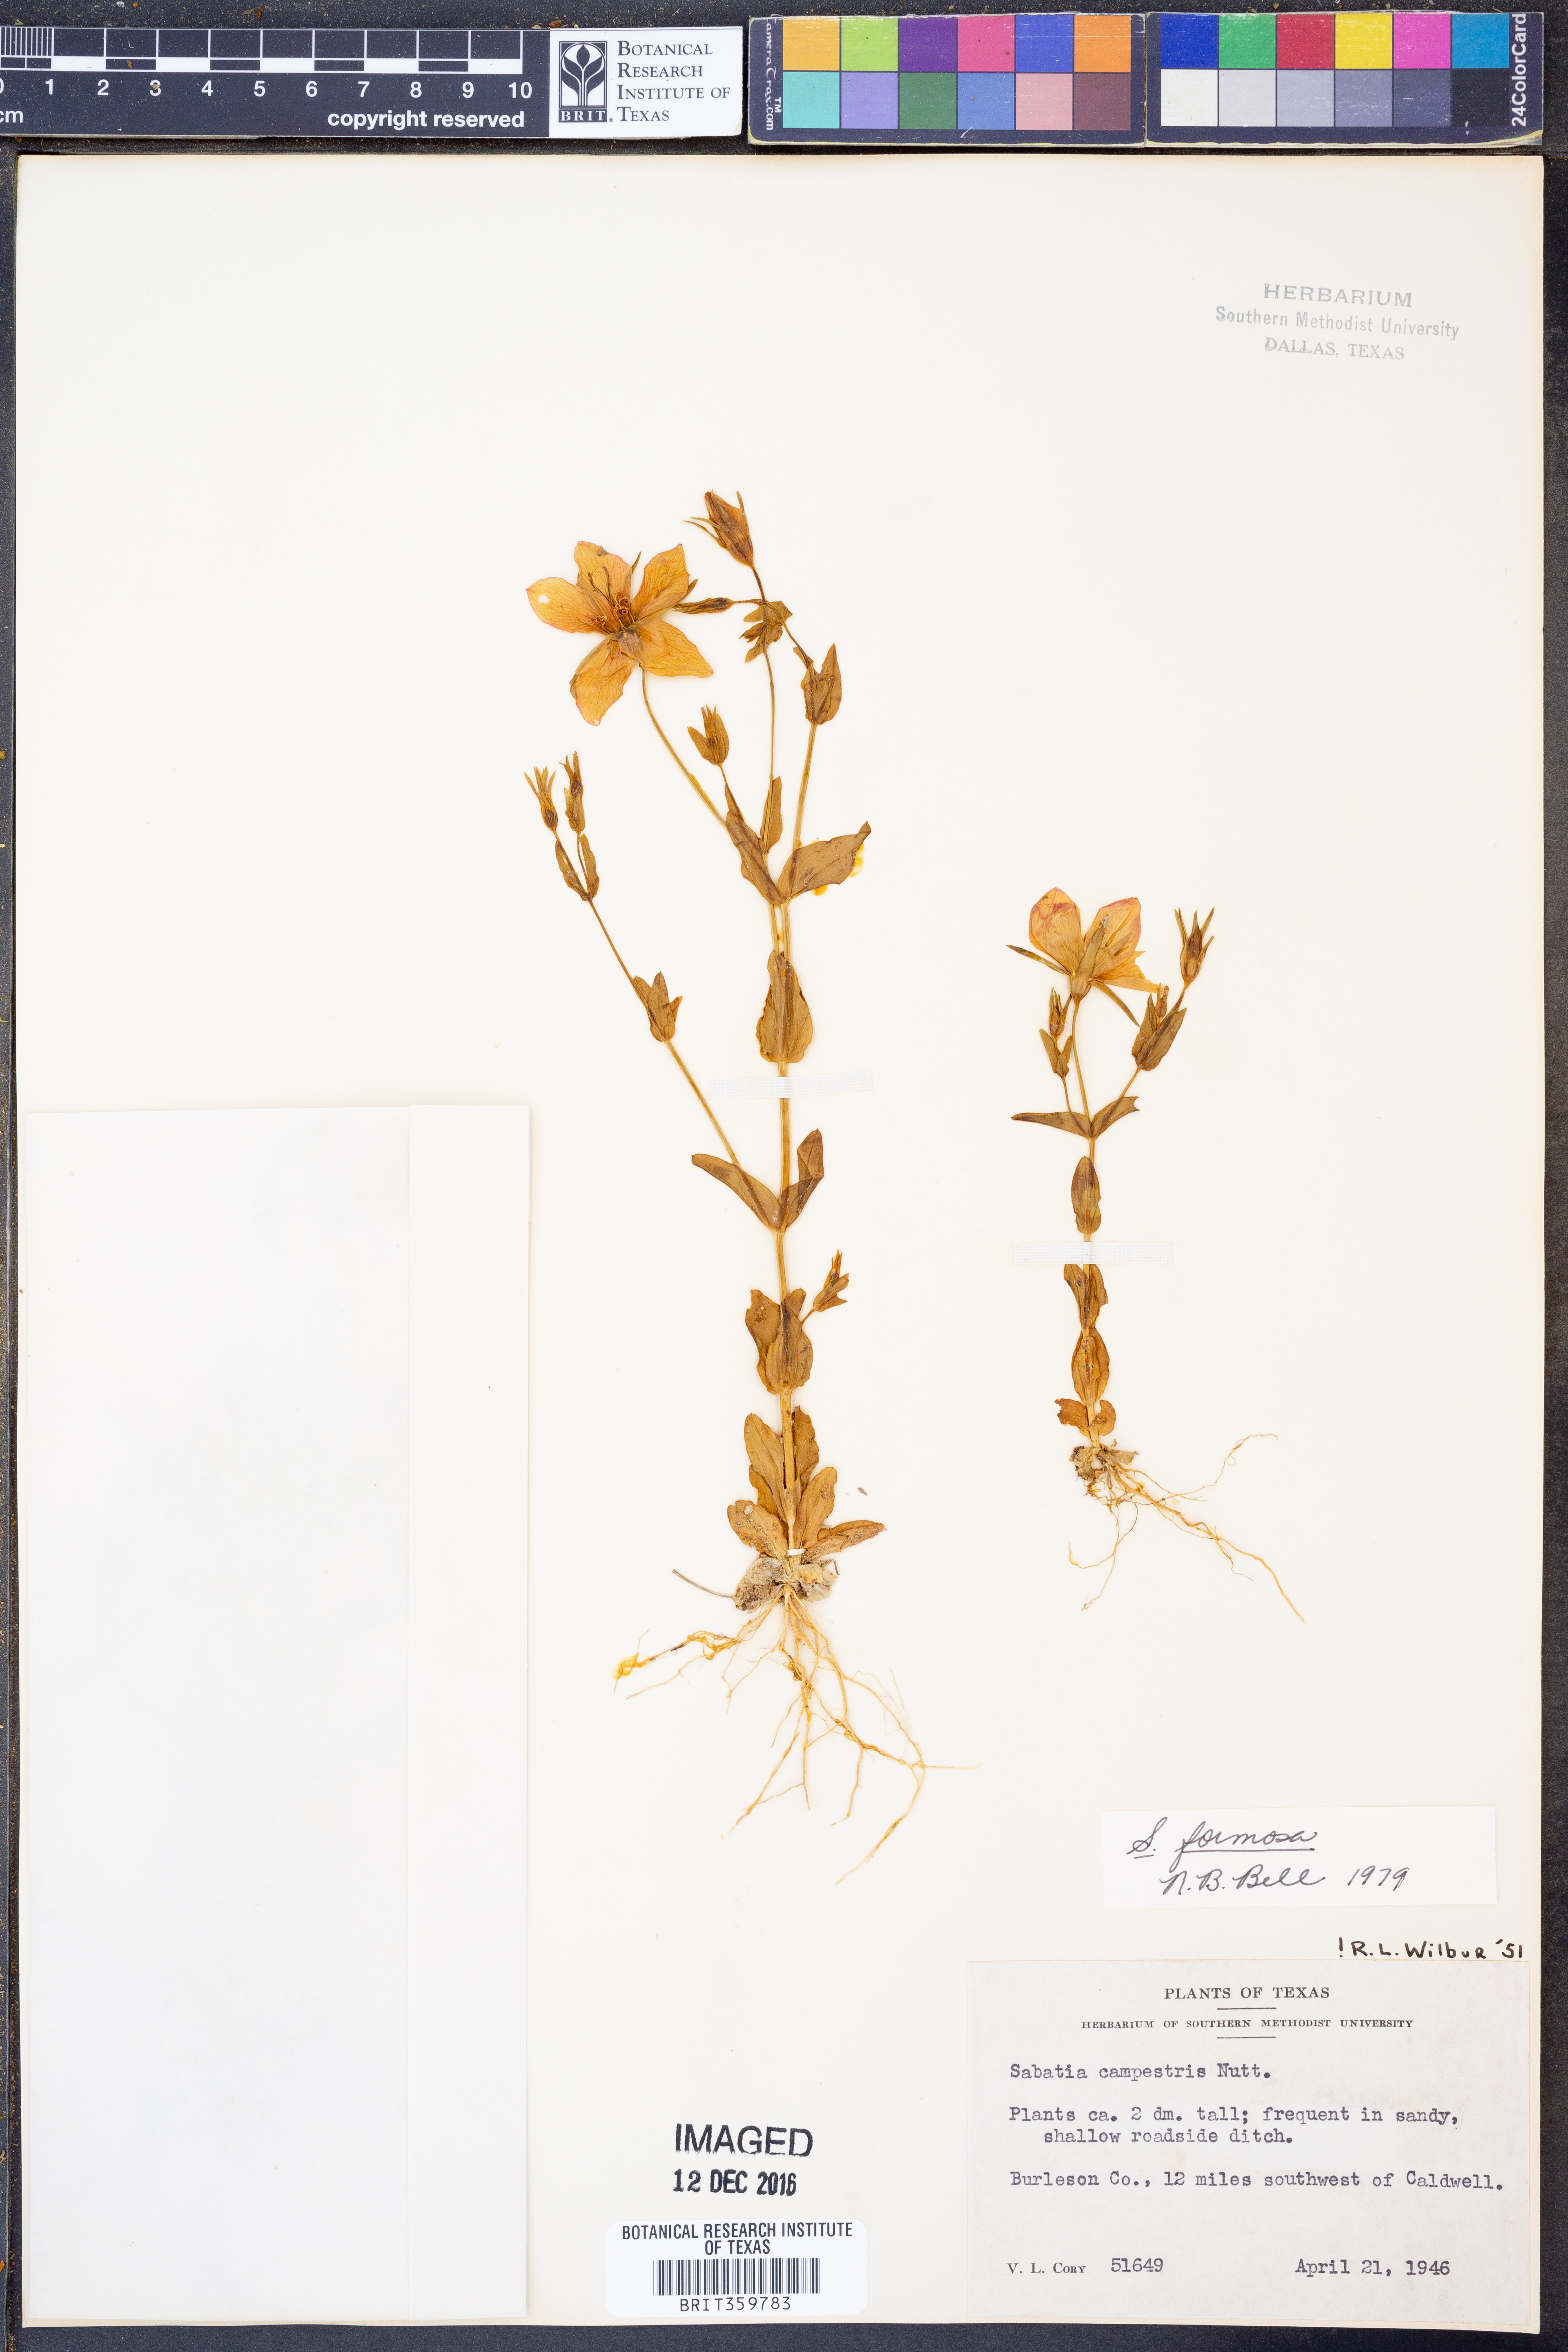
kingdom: Plantae
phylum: Tracheophyta
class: Magnoliopsida
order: Gentianales
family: Gentianaceae
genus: Sabatia
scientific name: Sabatia formosa
